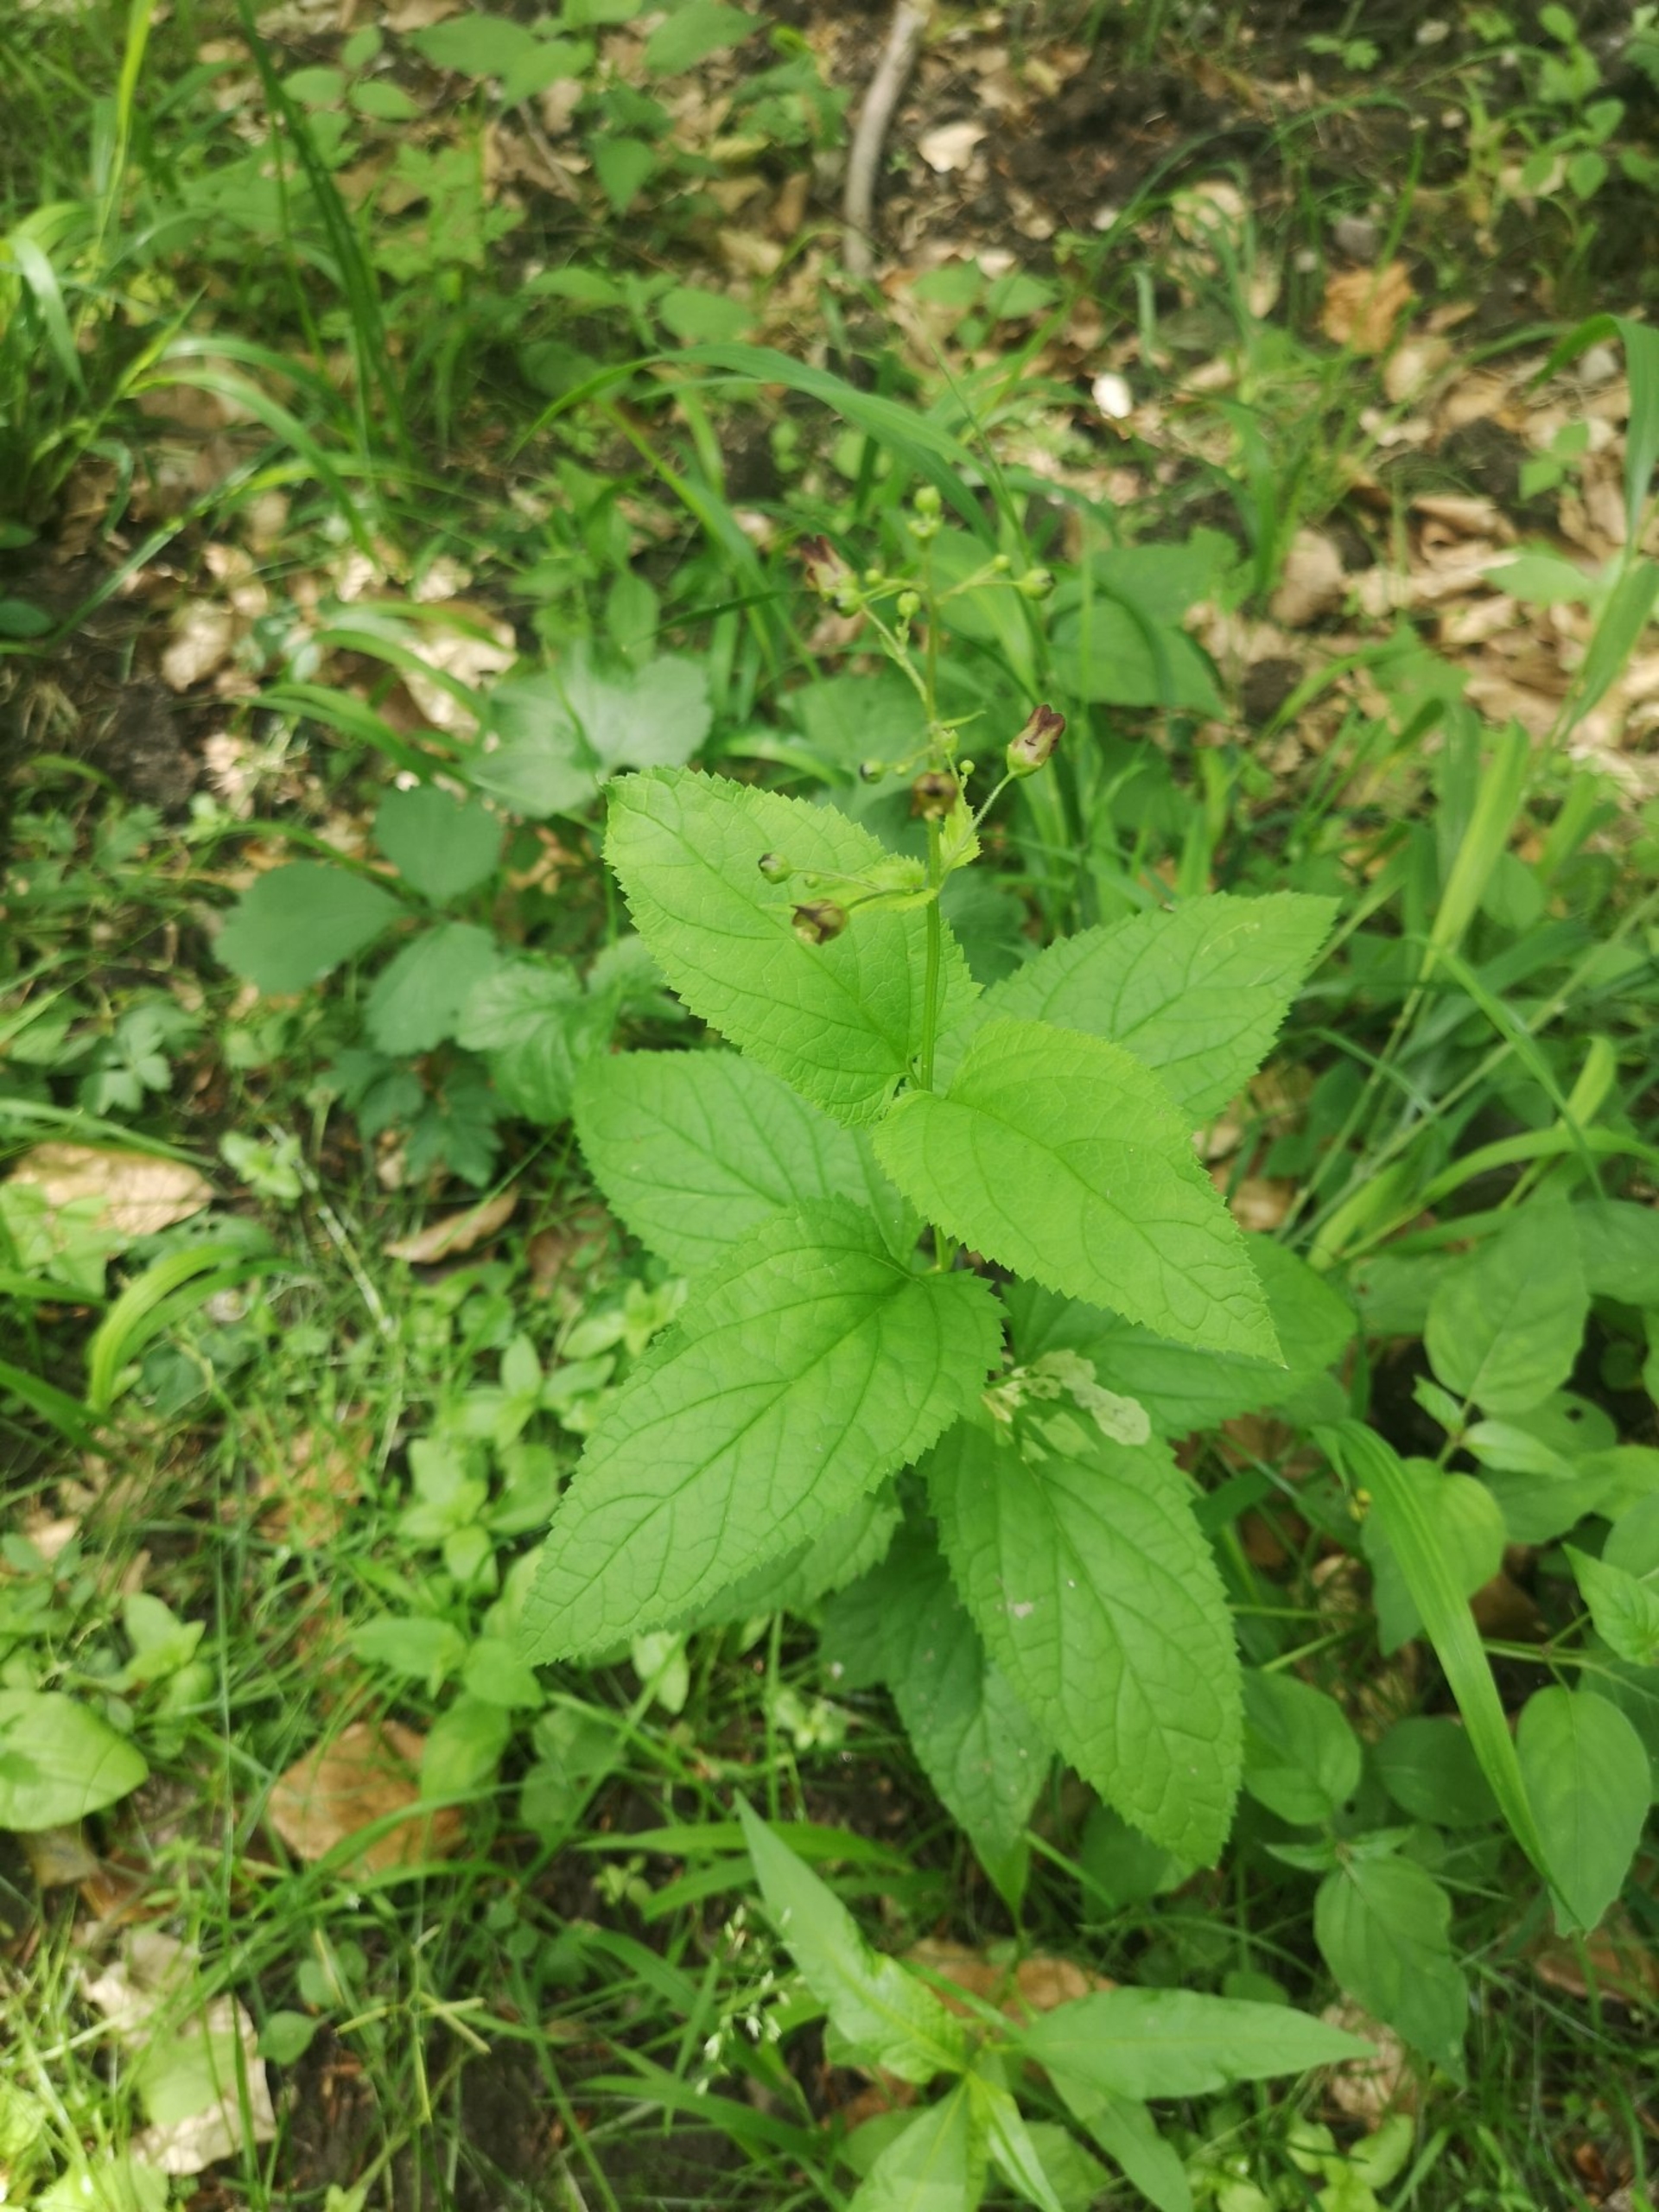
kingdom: Plantae
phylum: Tracheophyta
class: Magnoliopsida
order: Lamiales
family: Scrophulariaceae
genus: Scrophularia
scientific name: Scrophularia nodosa
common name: Knoldet brunrod
